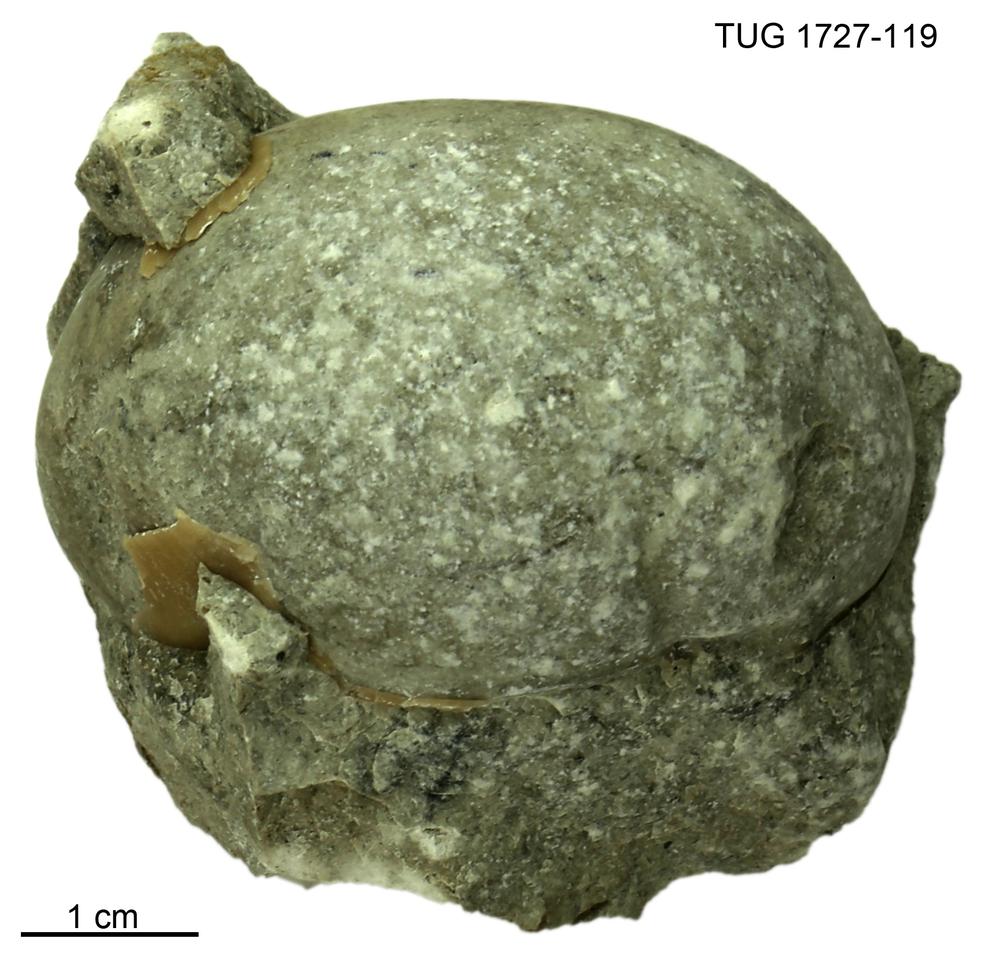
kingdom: Animalia
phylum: Arthropoda
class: Trilobita
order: Corynexochida
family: Illaenidae
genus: Parillaenus
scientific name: Parillaenus
